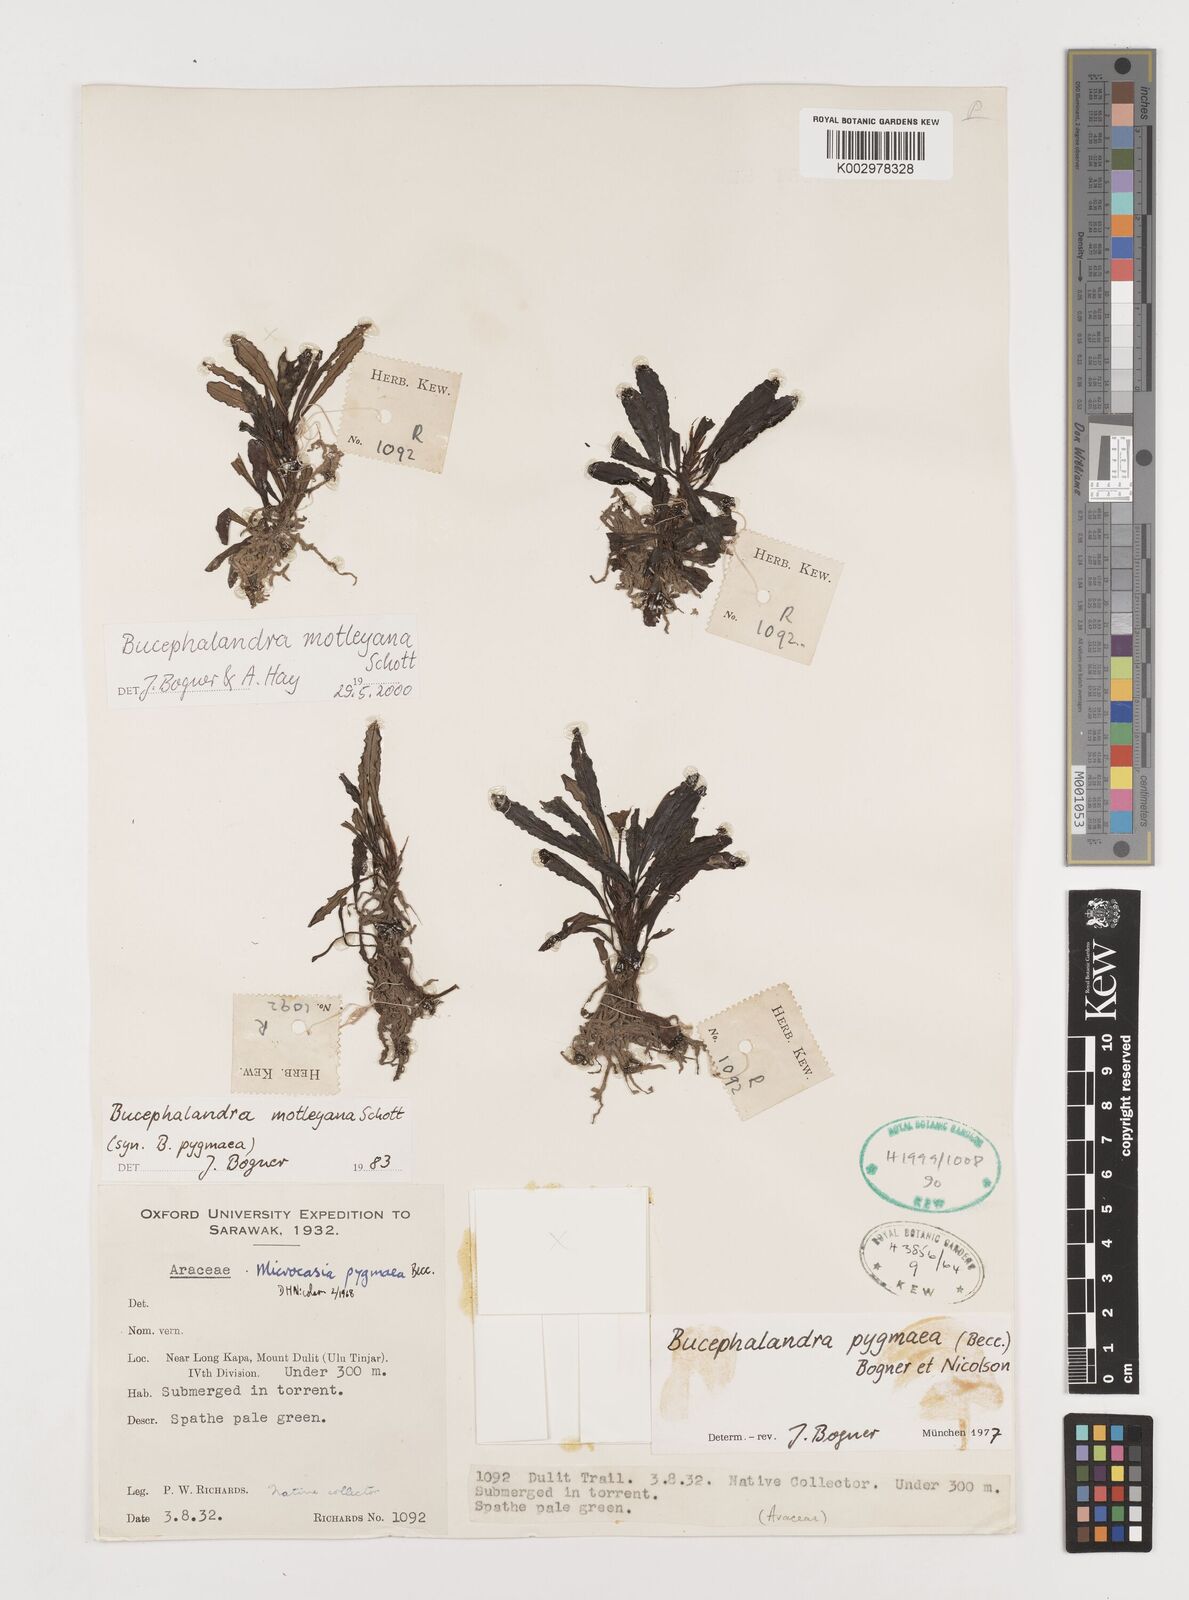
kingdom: Plantae
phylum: Tracheophyta
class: Liliopsida
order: Alismatales
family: Araceae
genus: Bucephalandra
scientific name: Bucephalandra motleyana
